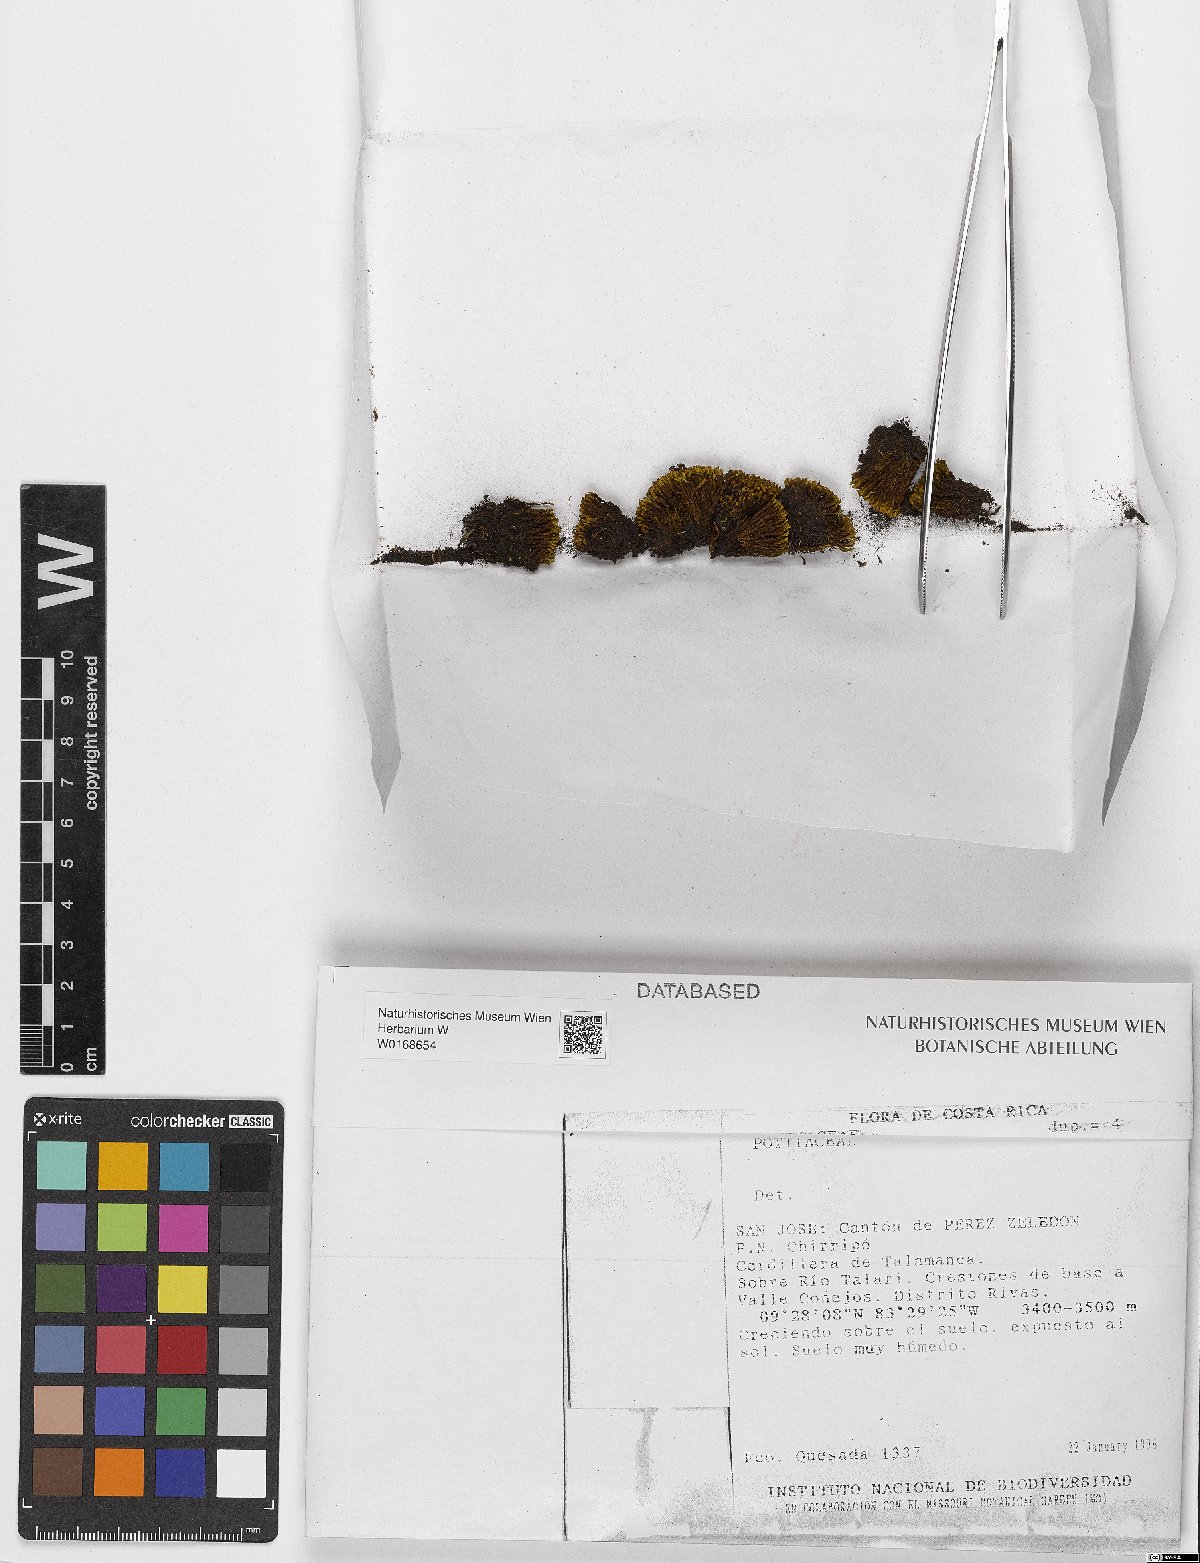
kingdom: Plantae
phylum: Bryophyta
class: Bryopsida
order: Pottiales
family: Pottiaceae
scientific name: Pottiaceae
